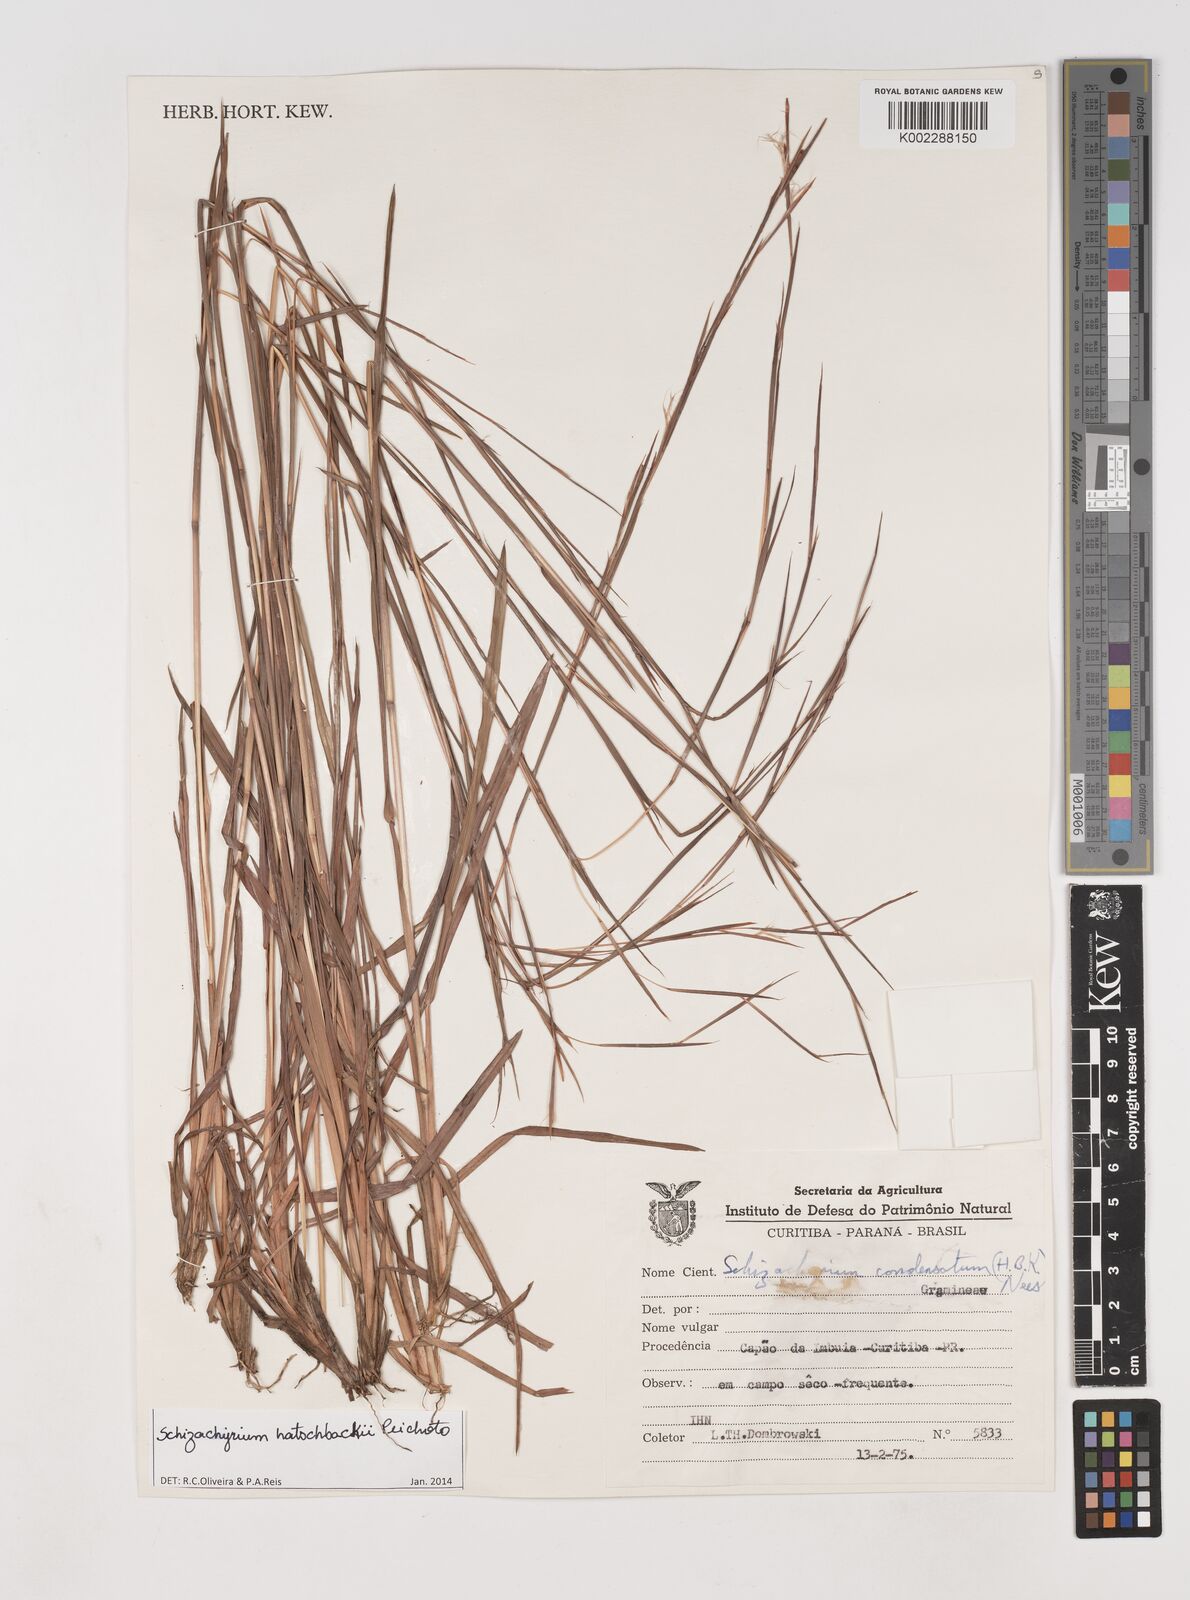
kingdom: Plantae
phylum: Tracheophyta
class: Liliopsida
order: Poales
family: Poaceae
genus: Schizachyrium
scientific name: Schizachyrium hatschbachii
